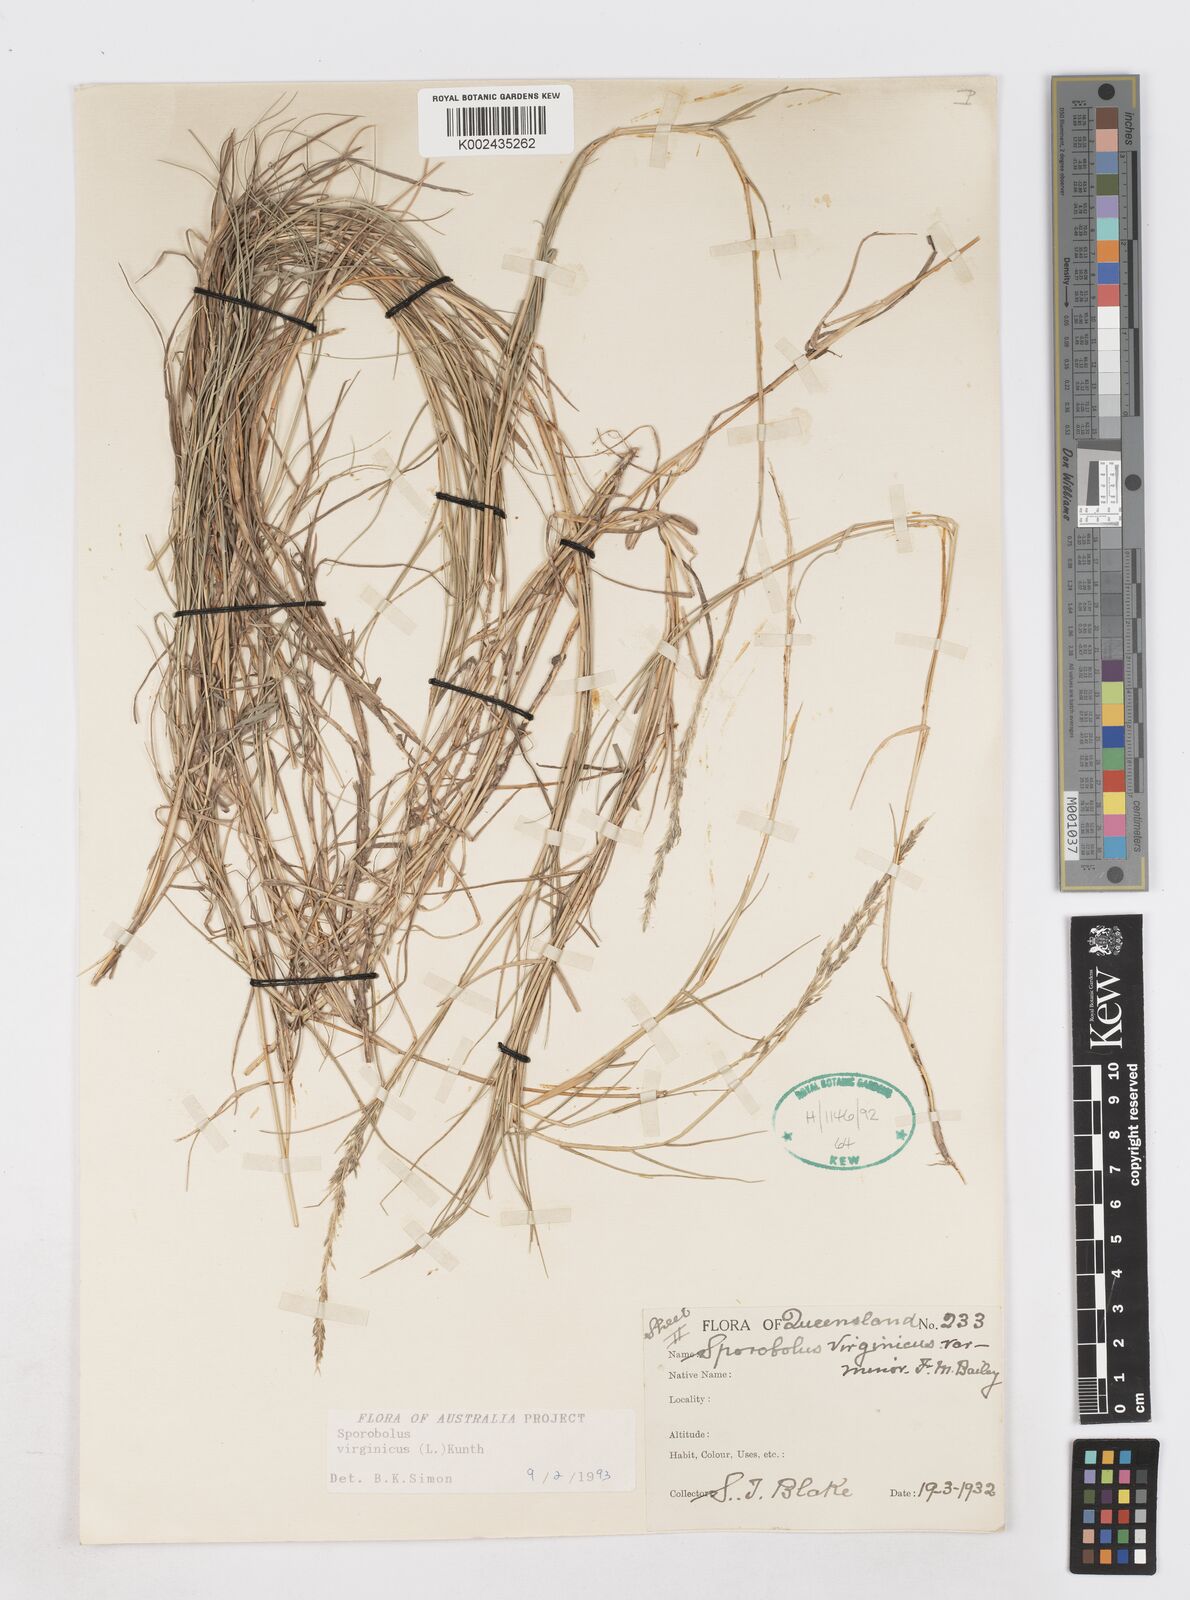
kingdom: Plantae
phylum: Tracheophyta
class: Liliopsida
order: Poales
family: Poaceae
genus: Sporobolus
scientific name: Sporobolus virginicus
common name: Beach dropseed
